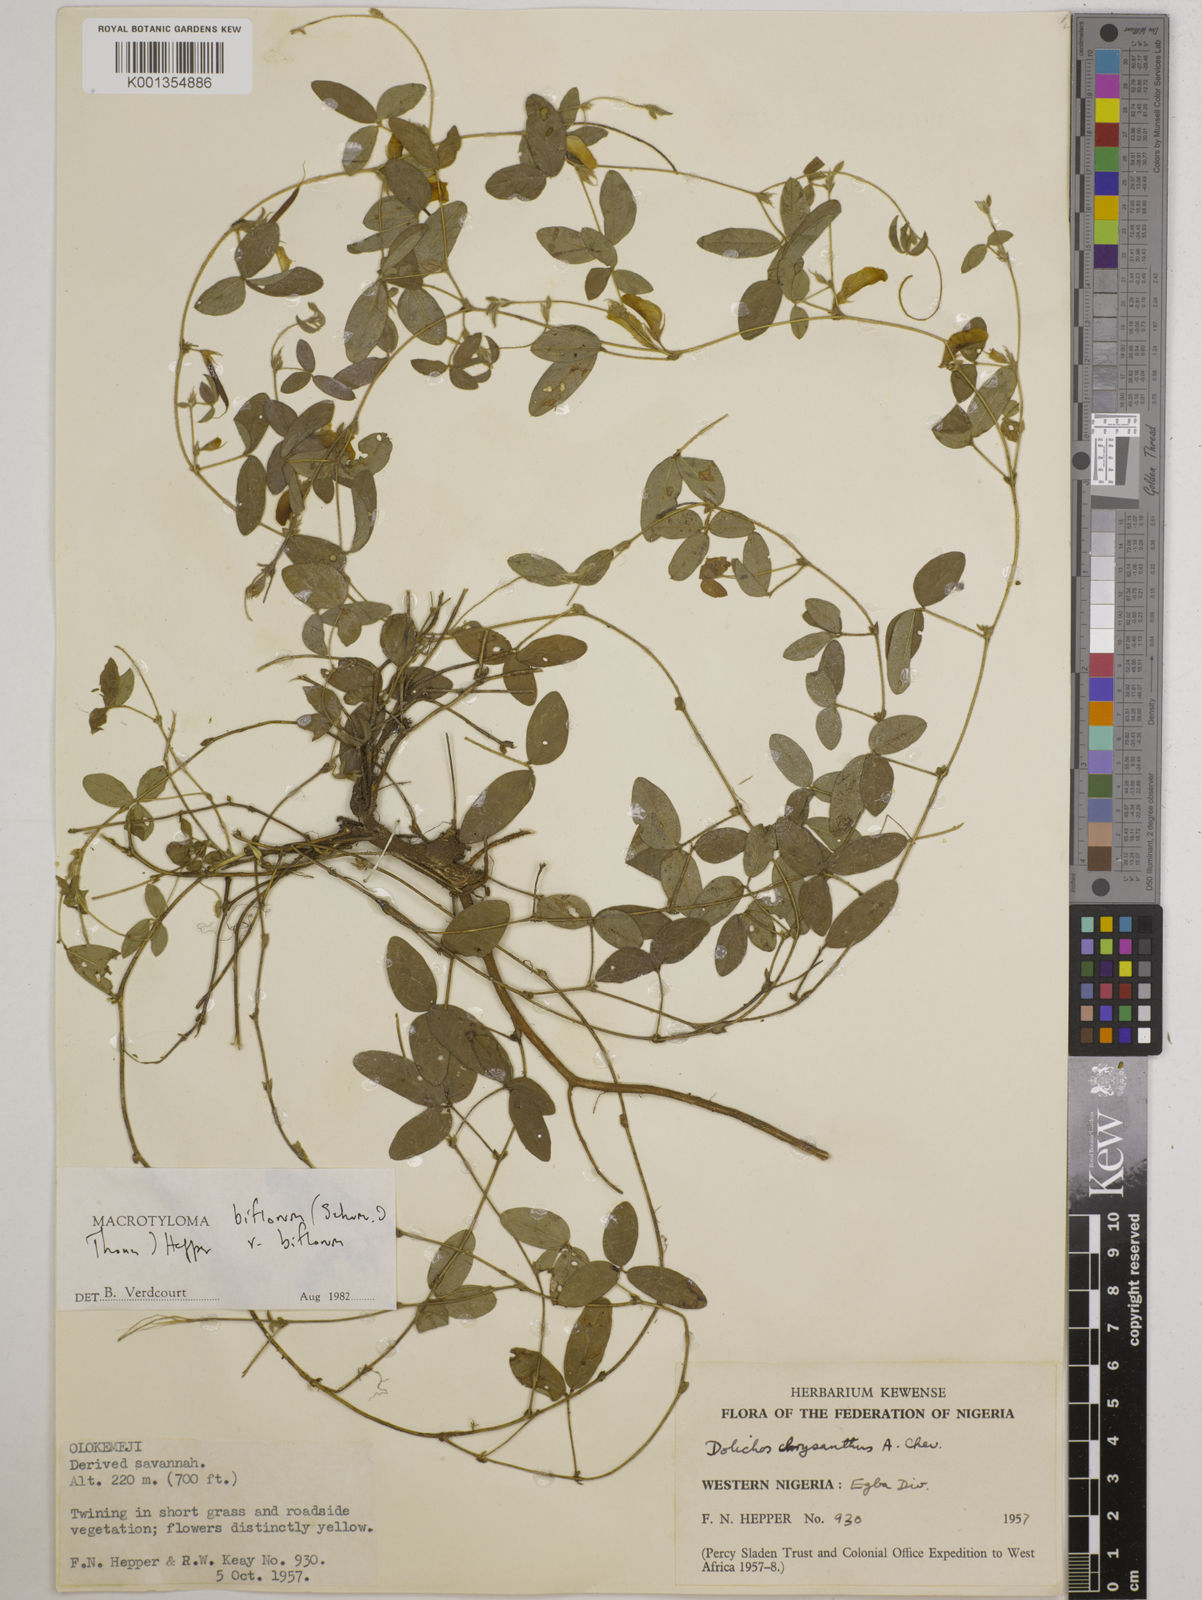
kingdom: Plantae
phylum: Tracheophyta
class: Magnoliopsida
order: Fabales
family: Fabaceae
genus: Macrotyloma
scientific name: Macrotyloma biflorum
